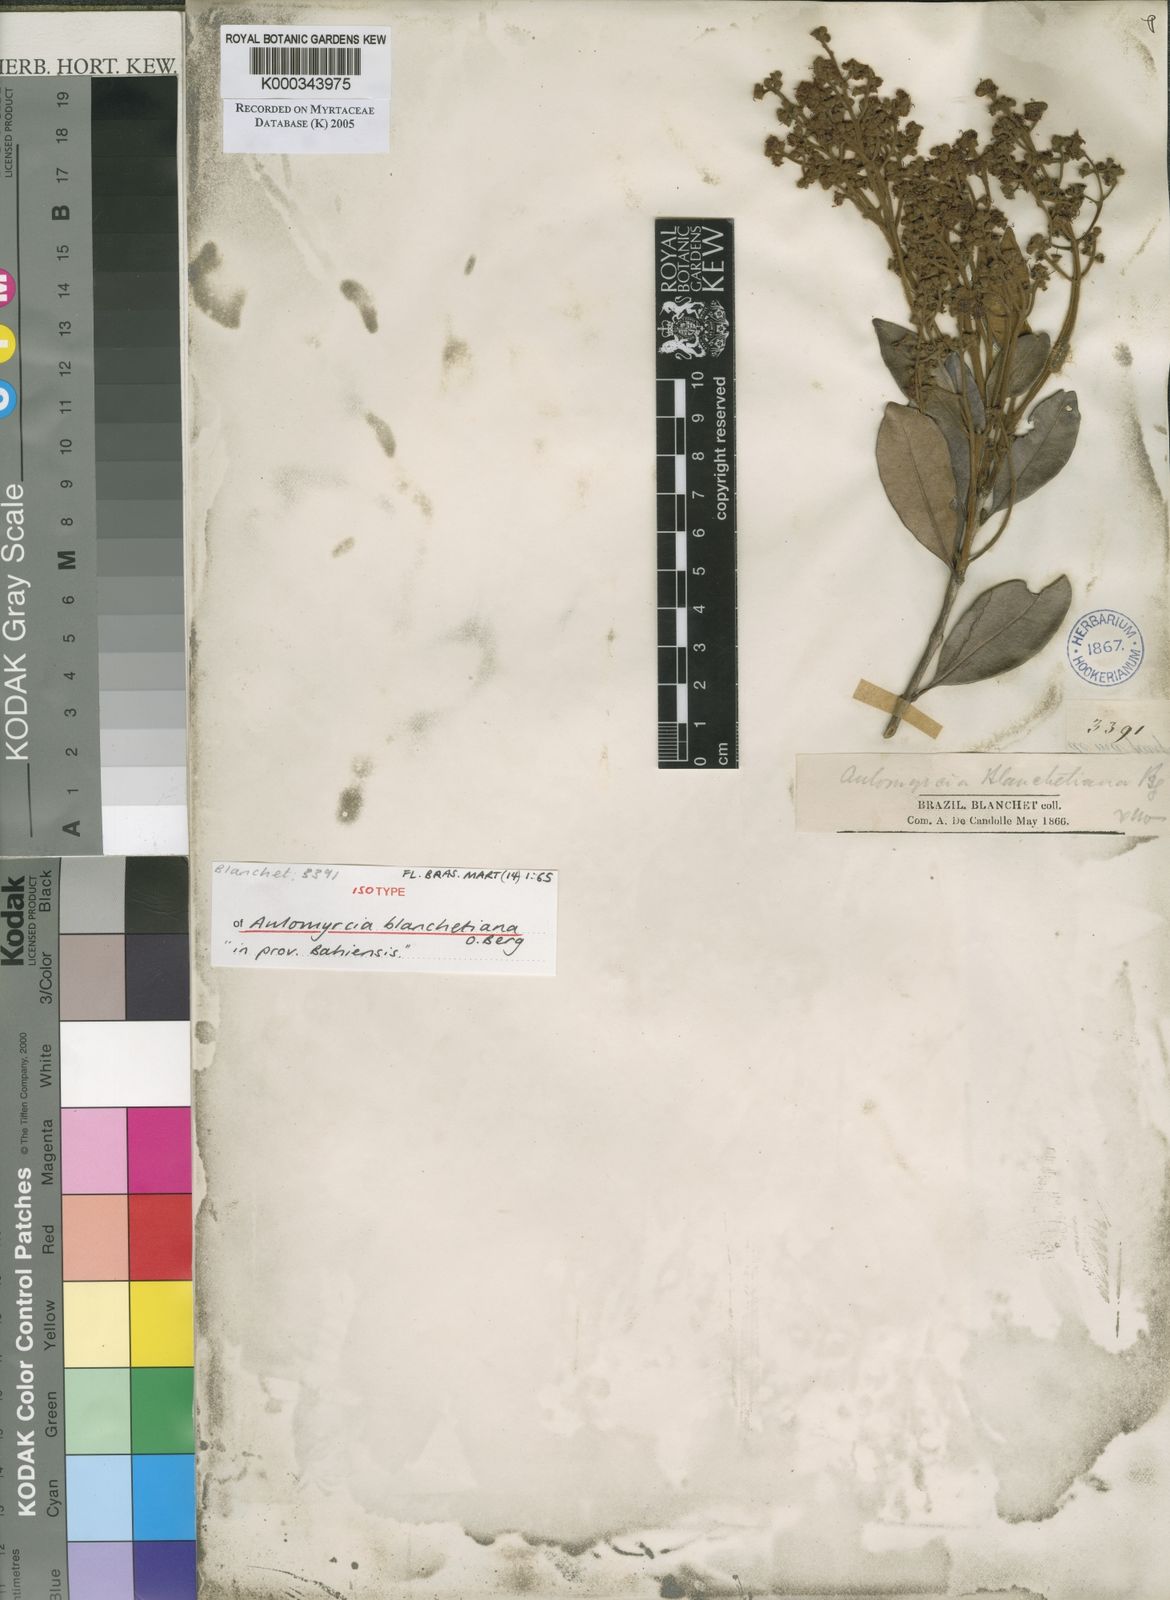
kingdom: Plantae
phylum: Tracheophyta
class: Magnoliopsida
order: Myrtales
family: Myrtaceae
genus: Myrcia
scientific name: Myrcia blanchetiana
